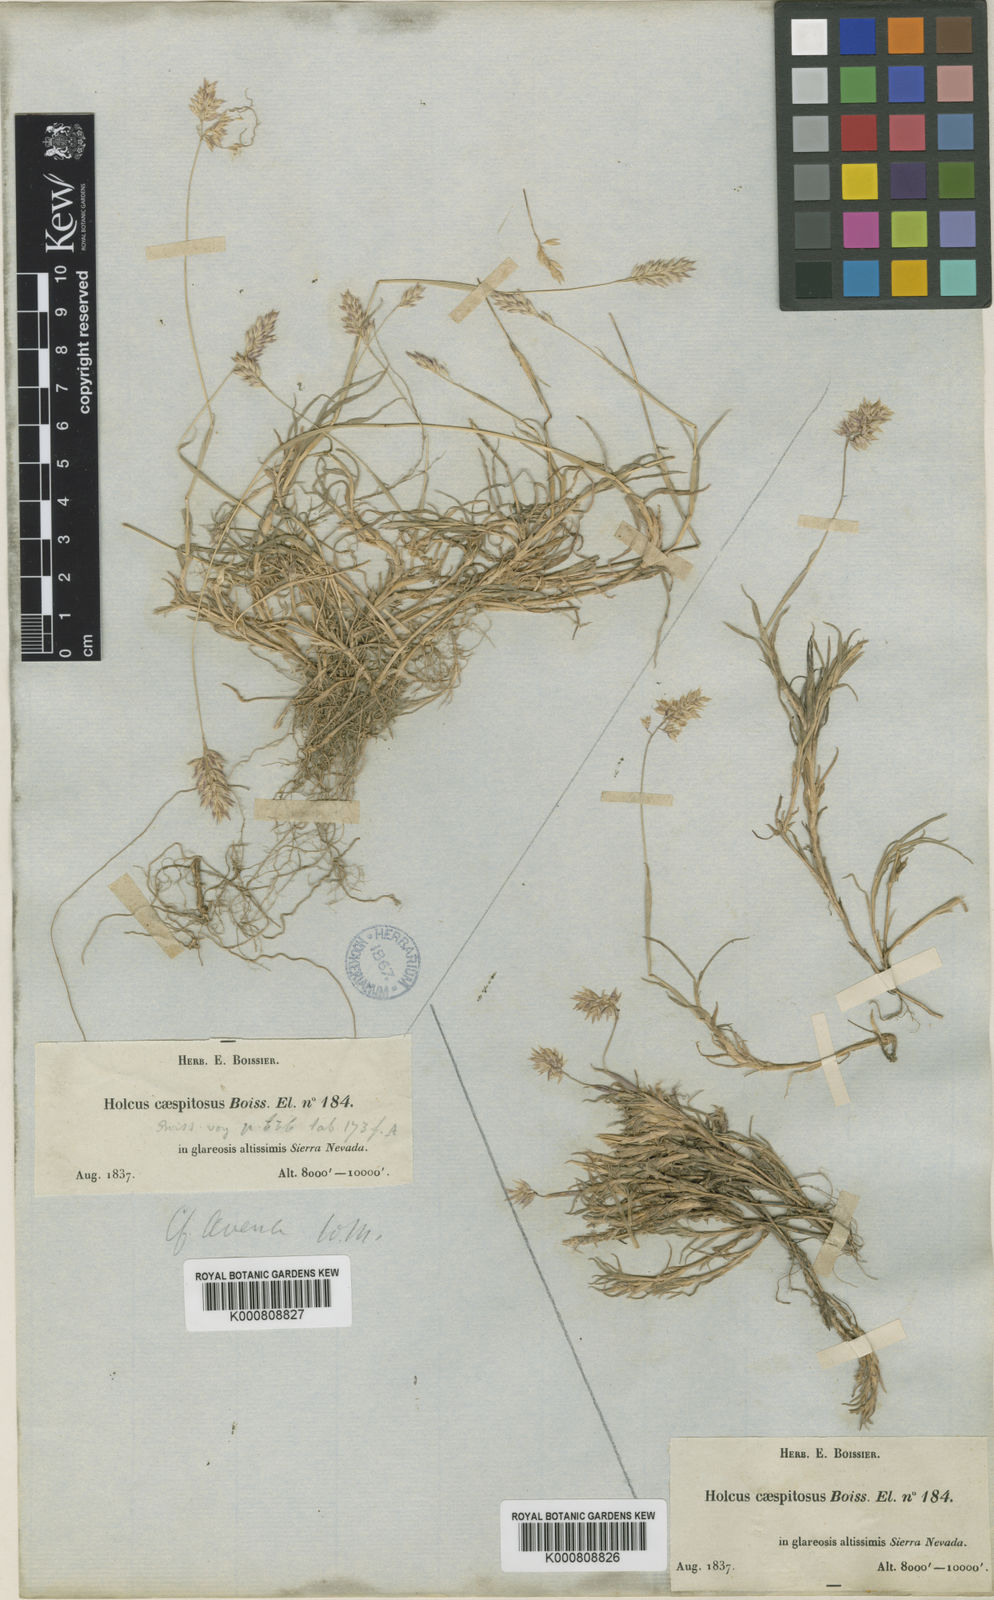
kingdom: Plantae
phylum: Tracheophyta
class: Liliopsida
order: Poales
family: Poaceae
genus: Holcus
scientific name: Holcus caespitosus
